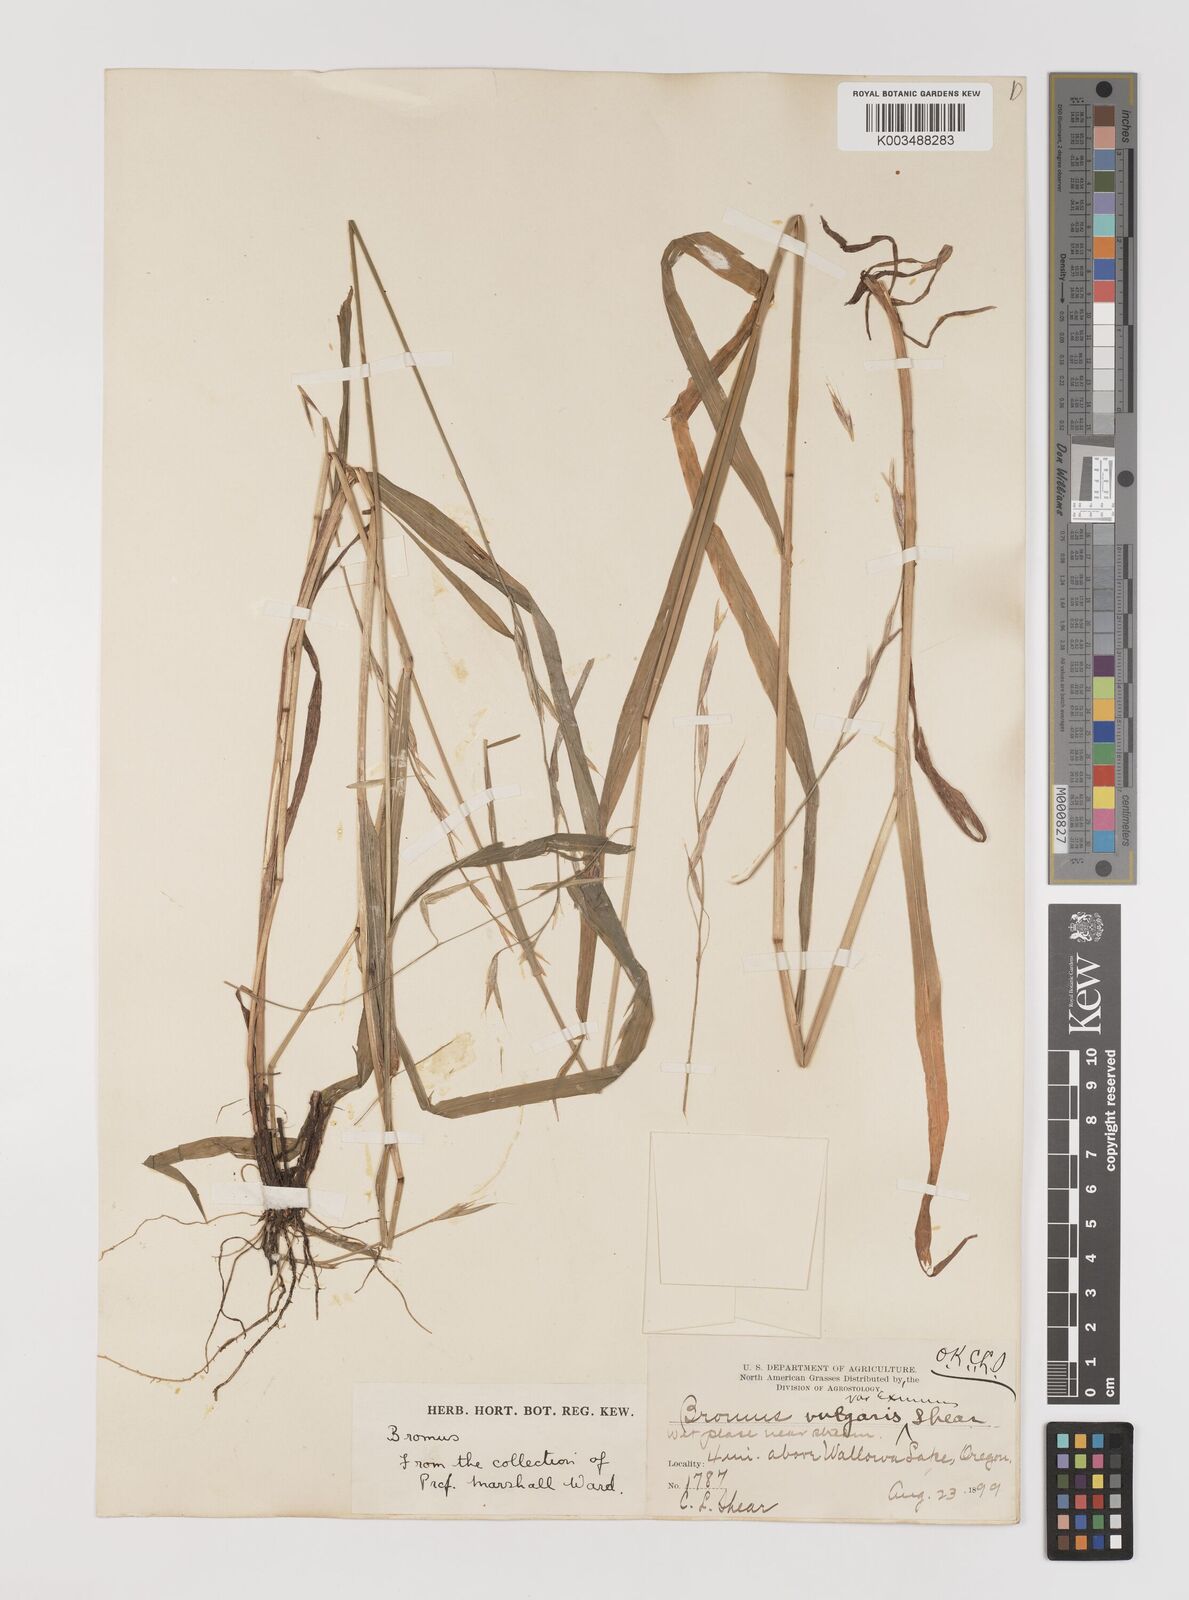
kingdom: Plantae
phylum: Tracheophyta
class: Liliopsida
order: Poales
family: Poaceae
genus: Bromus
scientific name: Bromus vulgaris
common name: Columbia brome
